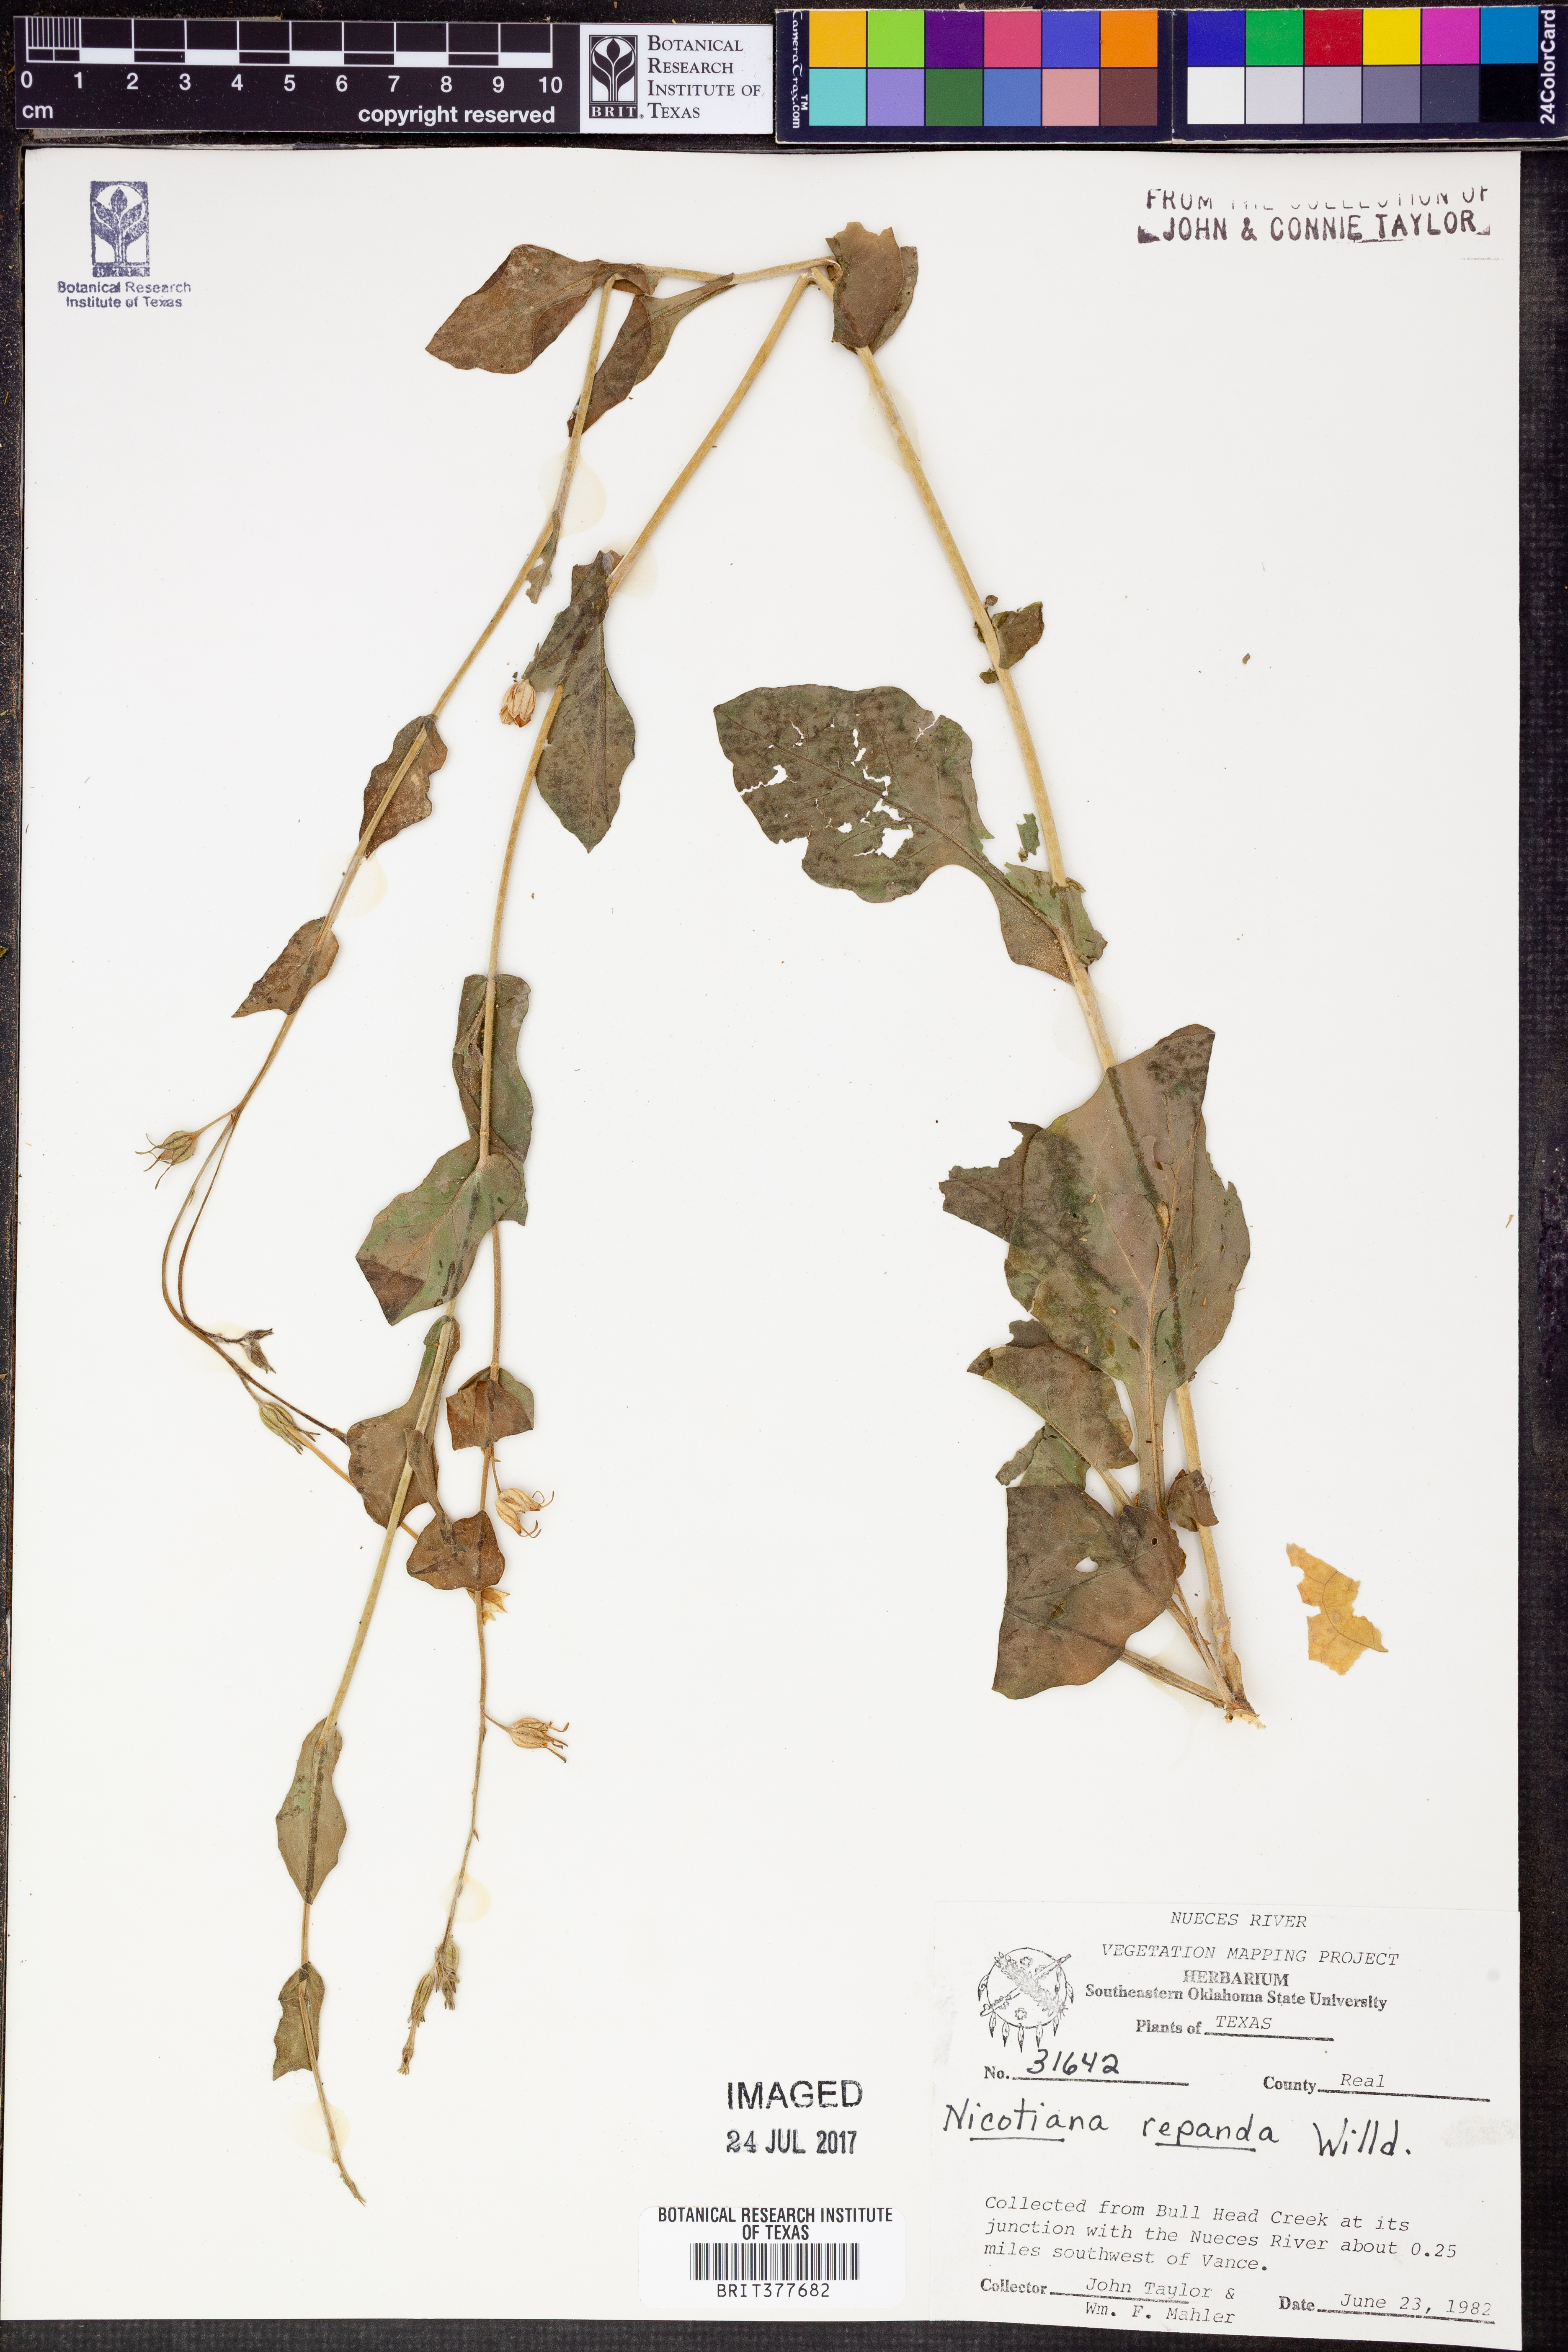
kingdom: Plantae
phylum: Tracheophyta
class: Magnoliopsida
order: Solanales
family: Solanaceae
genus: Nicotiana
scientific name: Nicotiana repanda
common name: Fiddle-leaf tobacco
